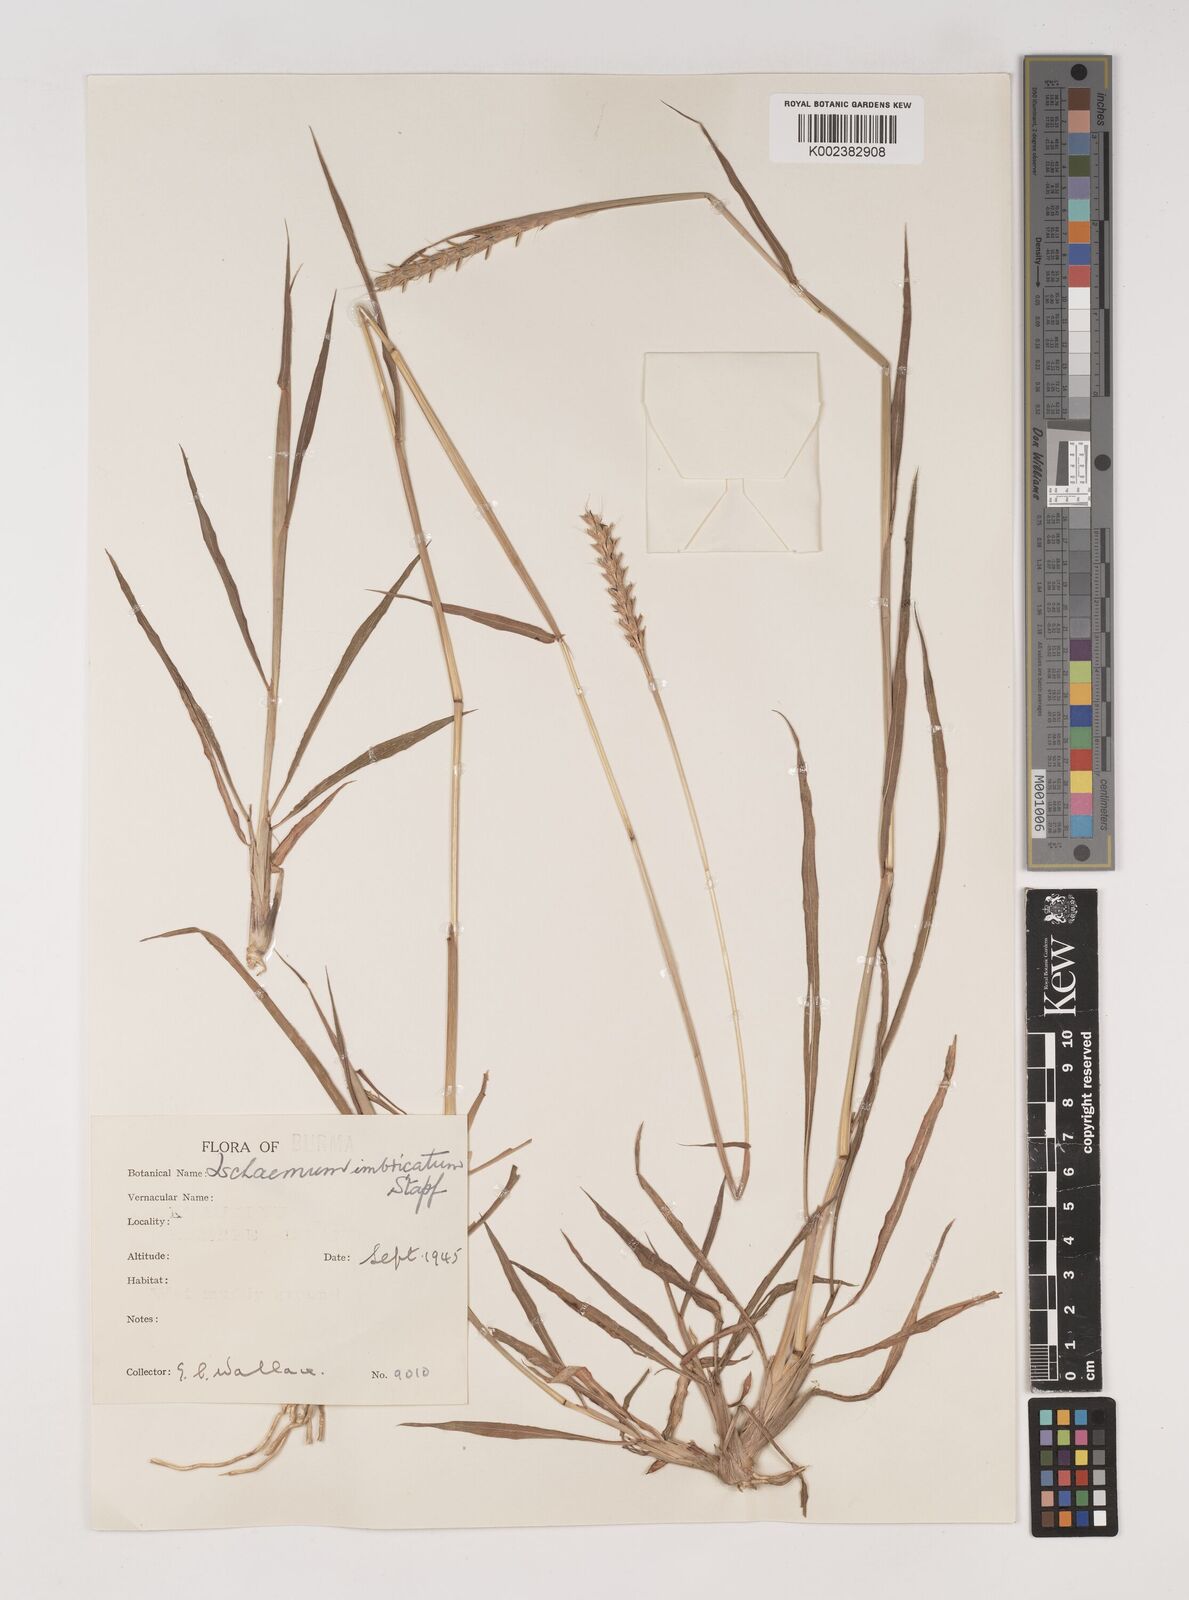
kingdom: Plantae
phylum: Tracheophyta
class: Liliopsida
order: Poales
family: Poaceae
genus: Ischaemum
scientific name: Ischaemum
